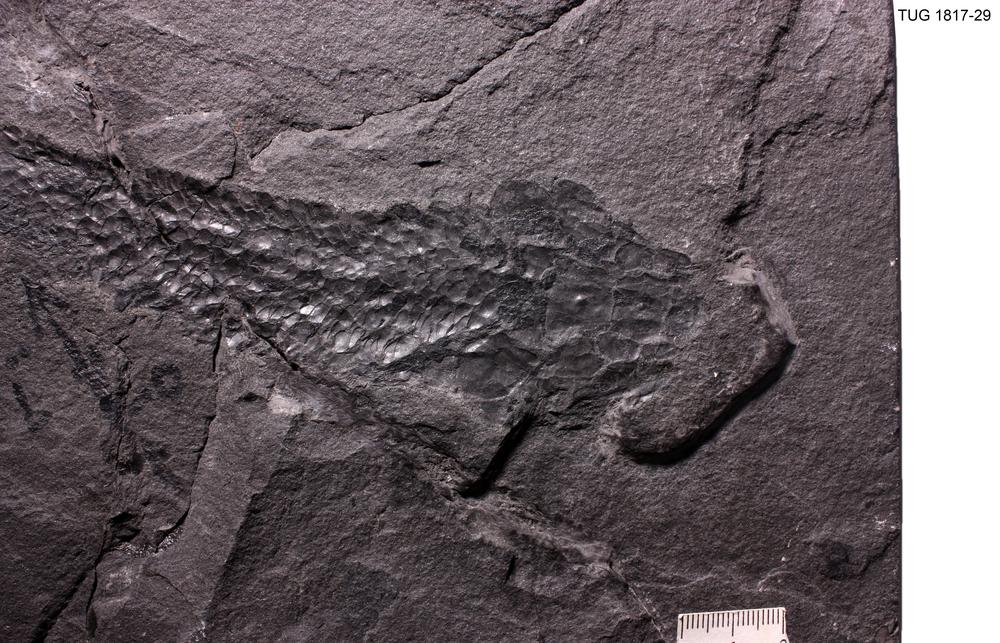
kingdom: Animalia
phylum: Chordata
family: Thursiidae
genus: Thursius
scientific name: Thursius Dipterus macrolepidotus
